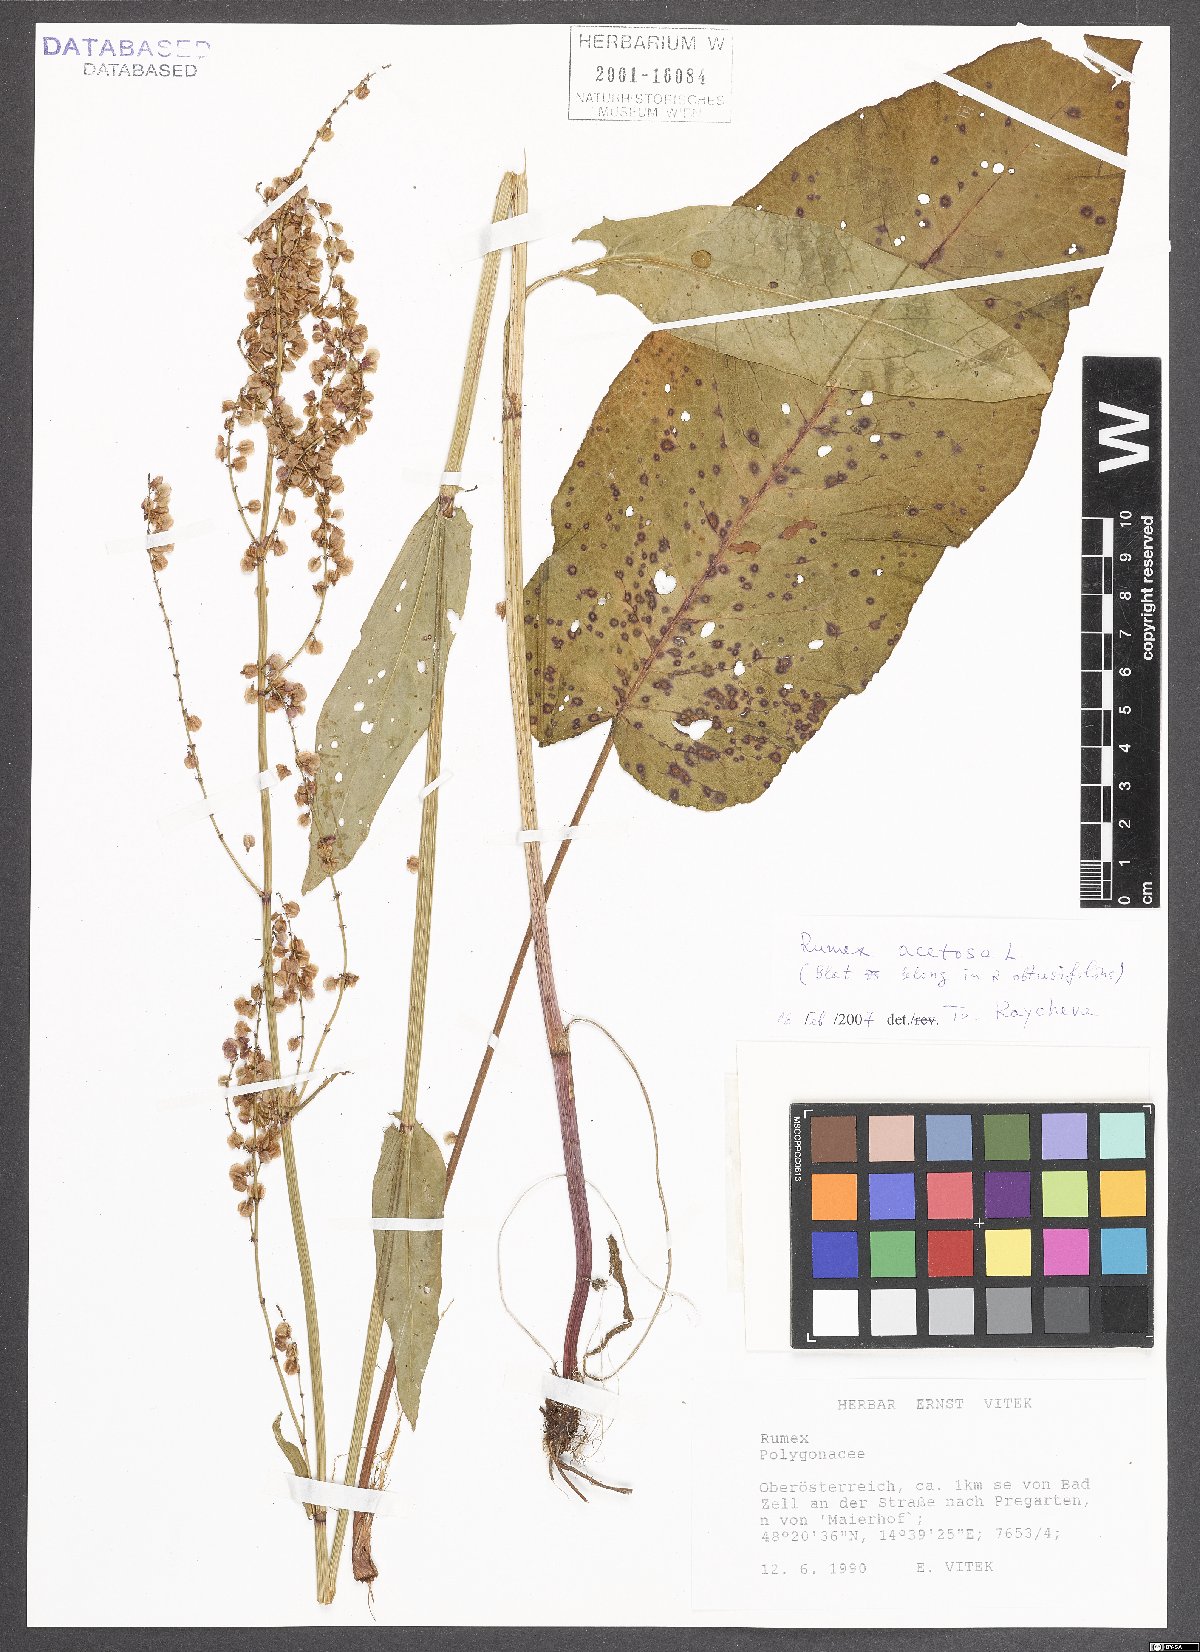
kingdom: Plantae
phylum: Tracheophyta
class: Magnoliopsida
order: Caryophyllales
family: Polygonaceae
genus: Rumex
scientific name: Rumex acetosa
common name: Garden sorrel
